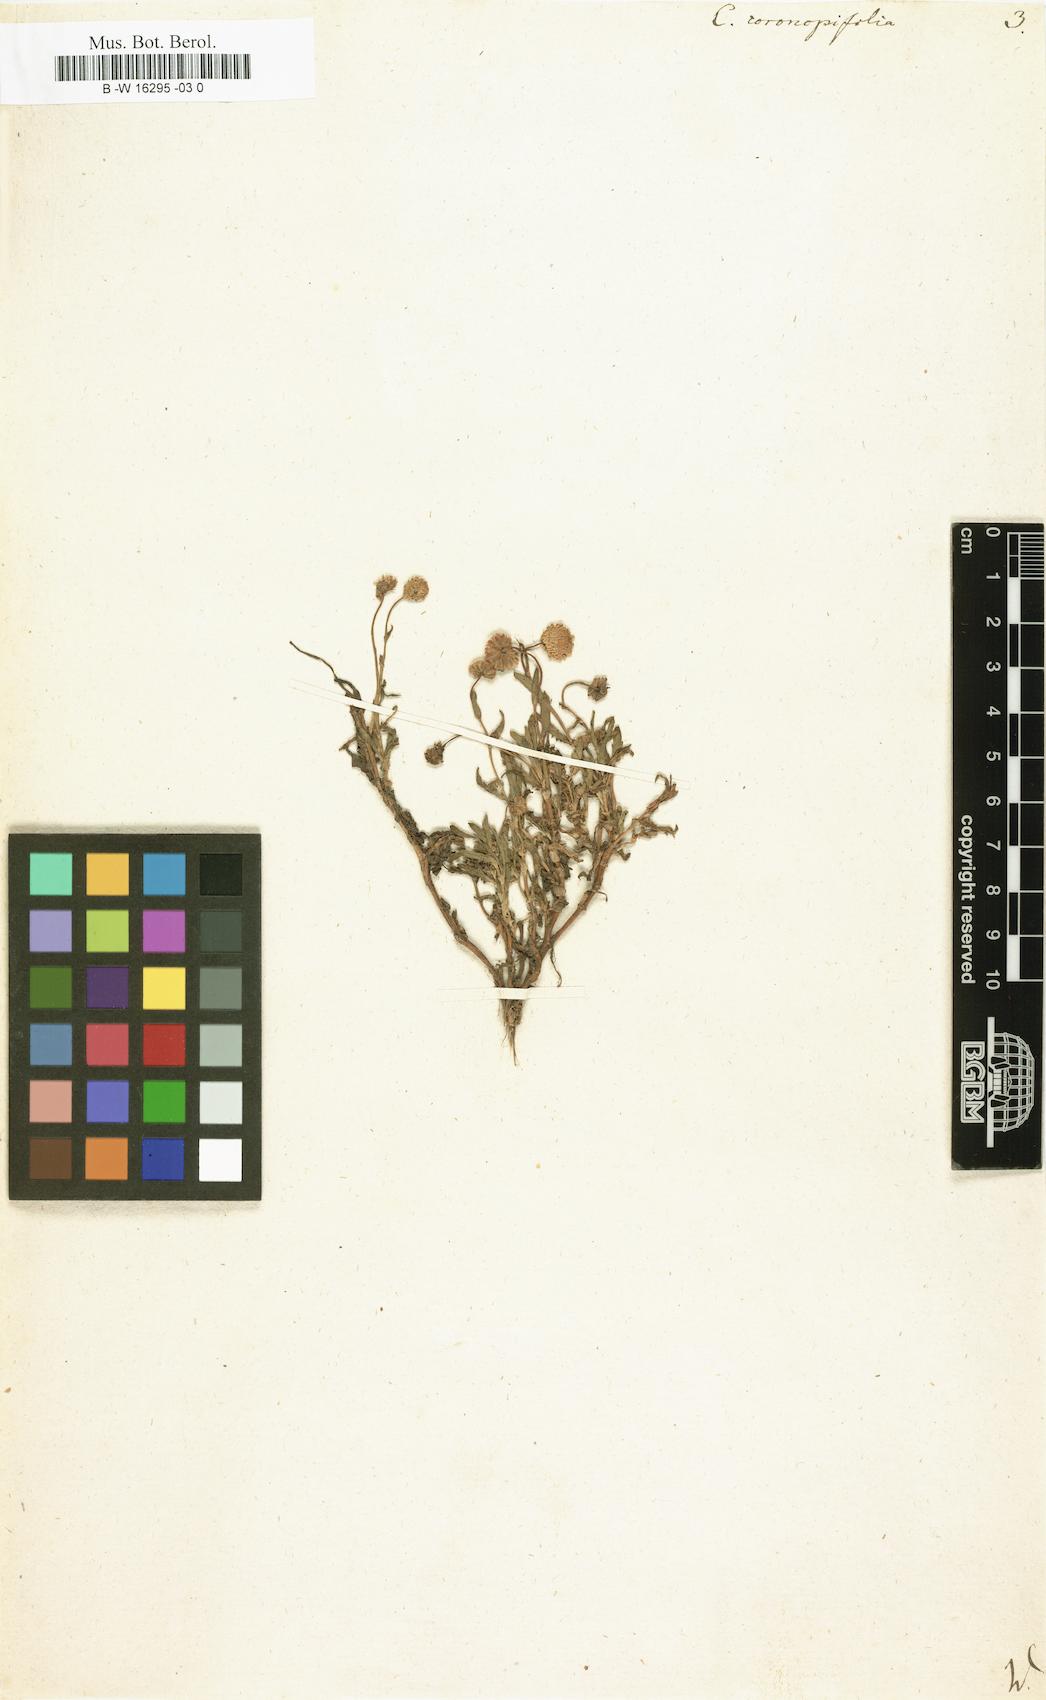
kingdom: Plantae
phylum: Tracheophyta
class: Magnoliopsida
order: Asterales
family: Asteraceae
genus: Cotula
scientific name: Cotula coronopifolia
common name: Buttonweed
